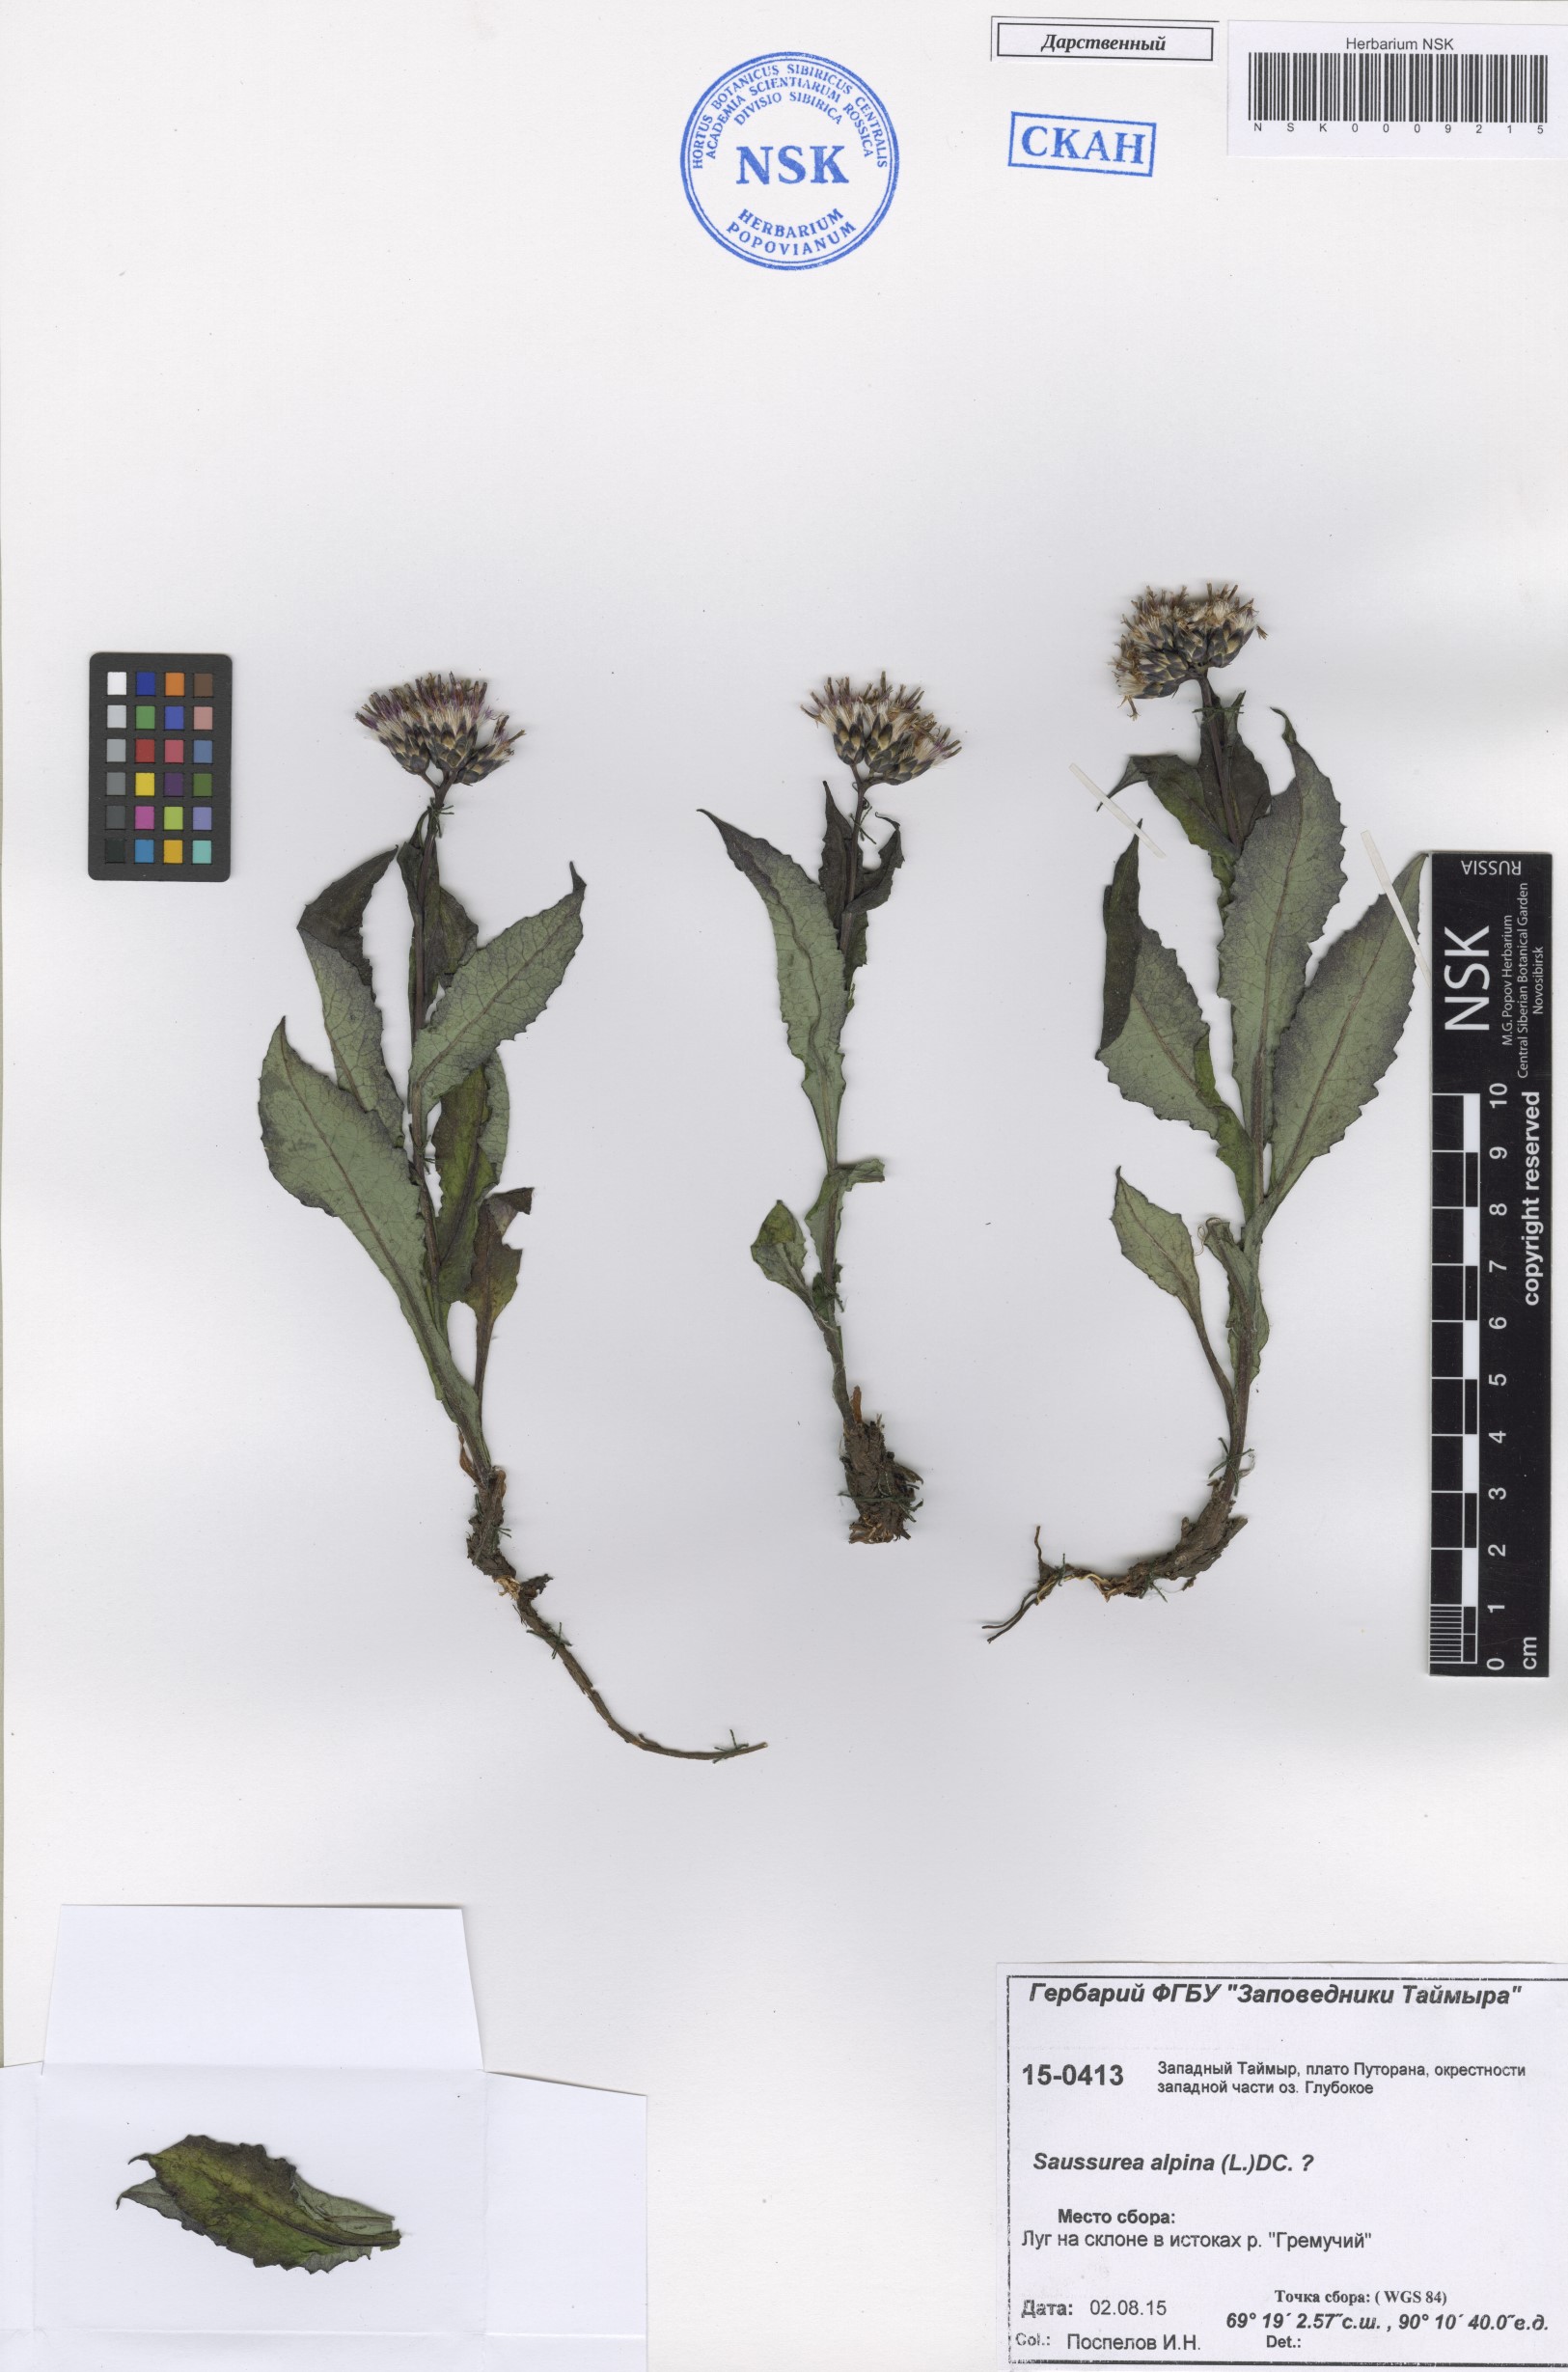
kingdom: Plantae
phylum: Tracheophyta
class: Magnoliopsida
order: Asterales
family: Asteraceae
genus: Saussurea
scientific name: Saussurea alpina
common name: Alpine saw-wort
